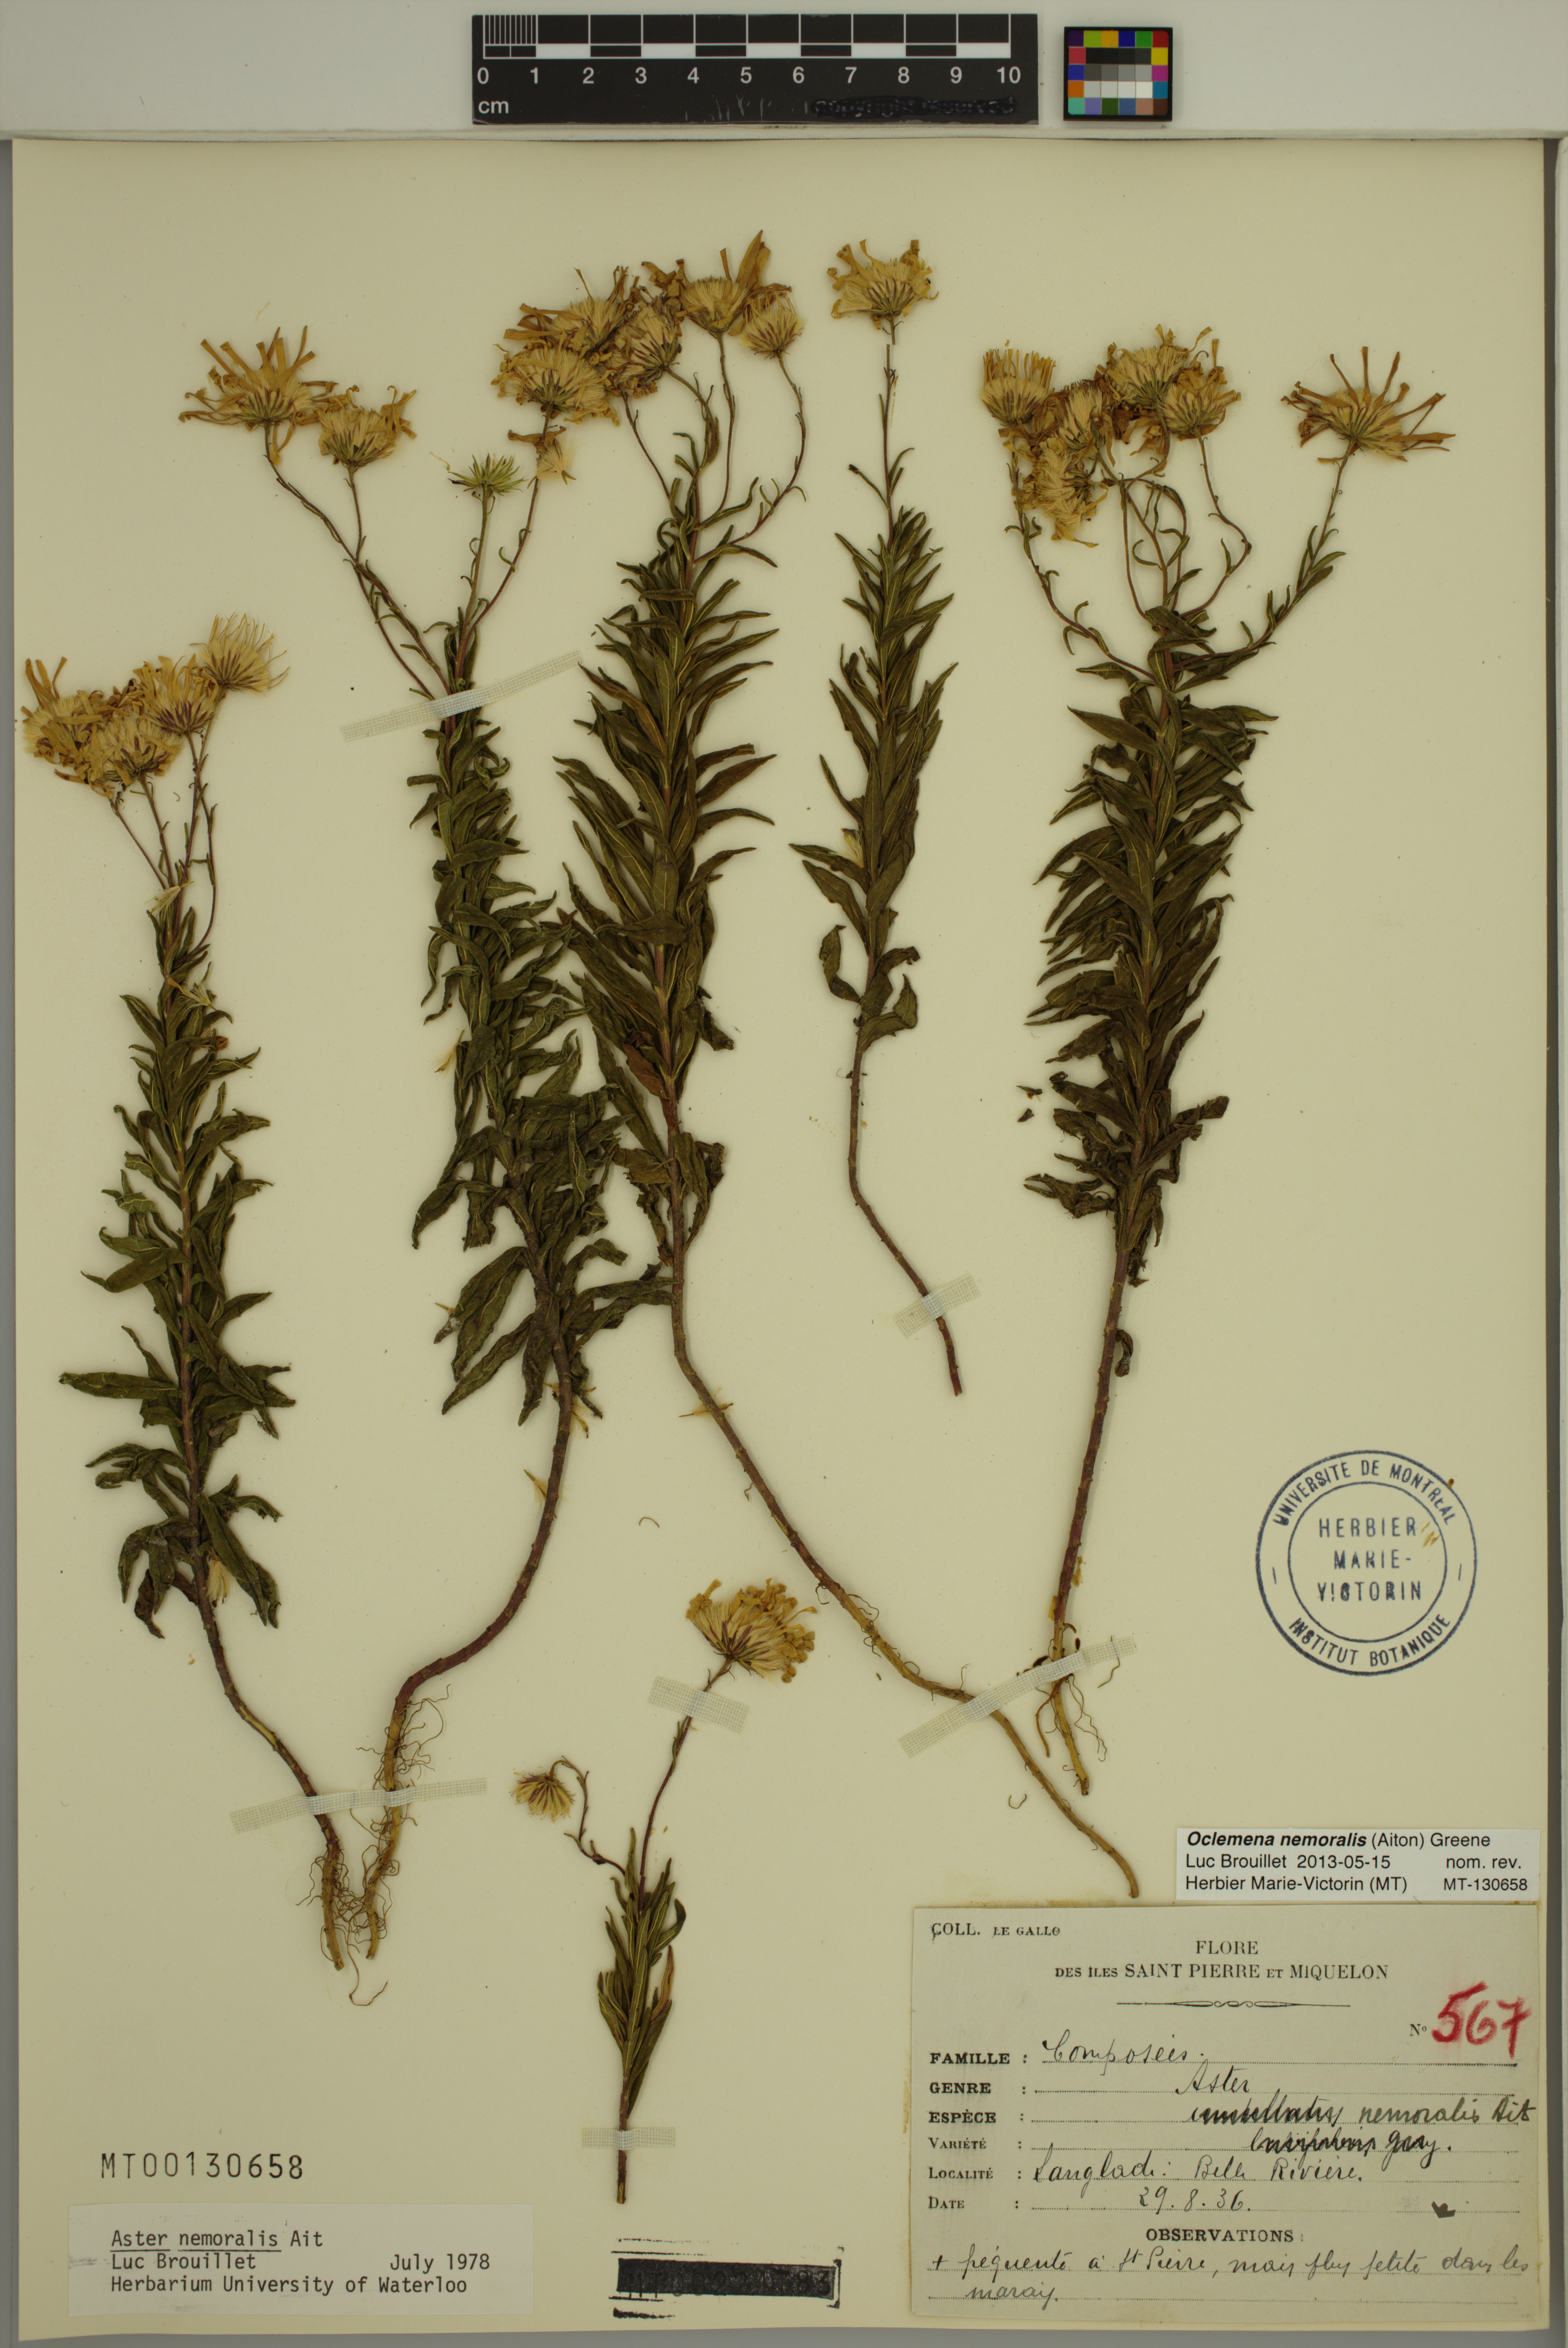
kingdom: Plantae
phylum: Tracheophyta
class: Magnoliopsida
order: Asterales
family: Asteraceae
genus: Oclemena
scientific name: Oclemena nemoralis
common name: Bog aster
